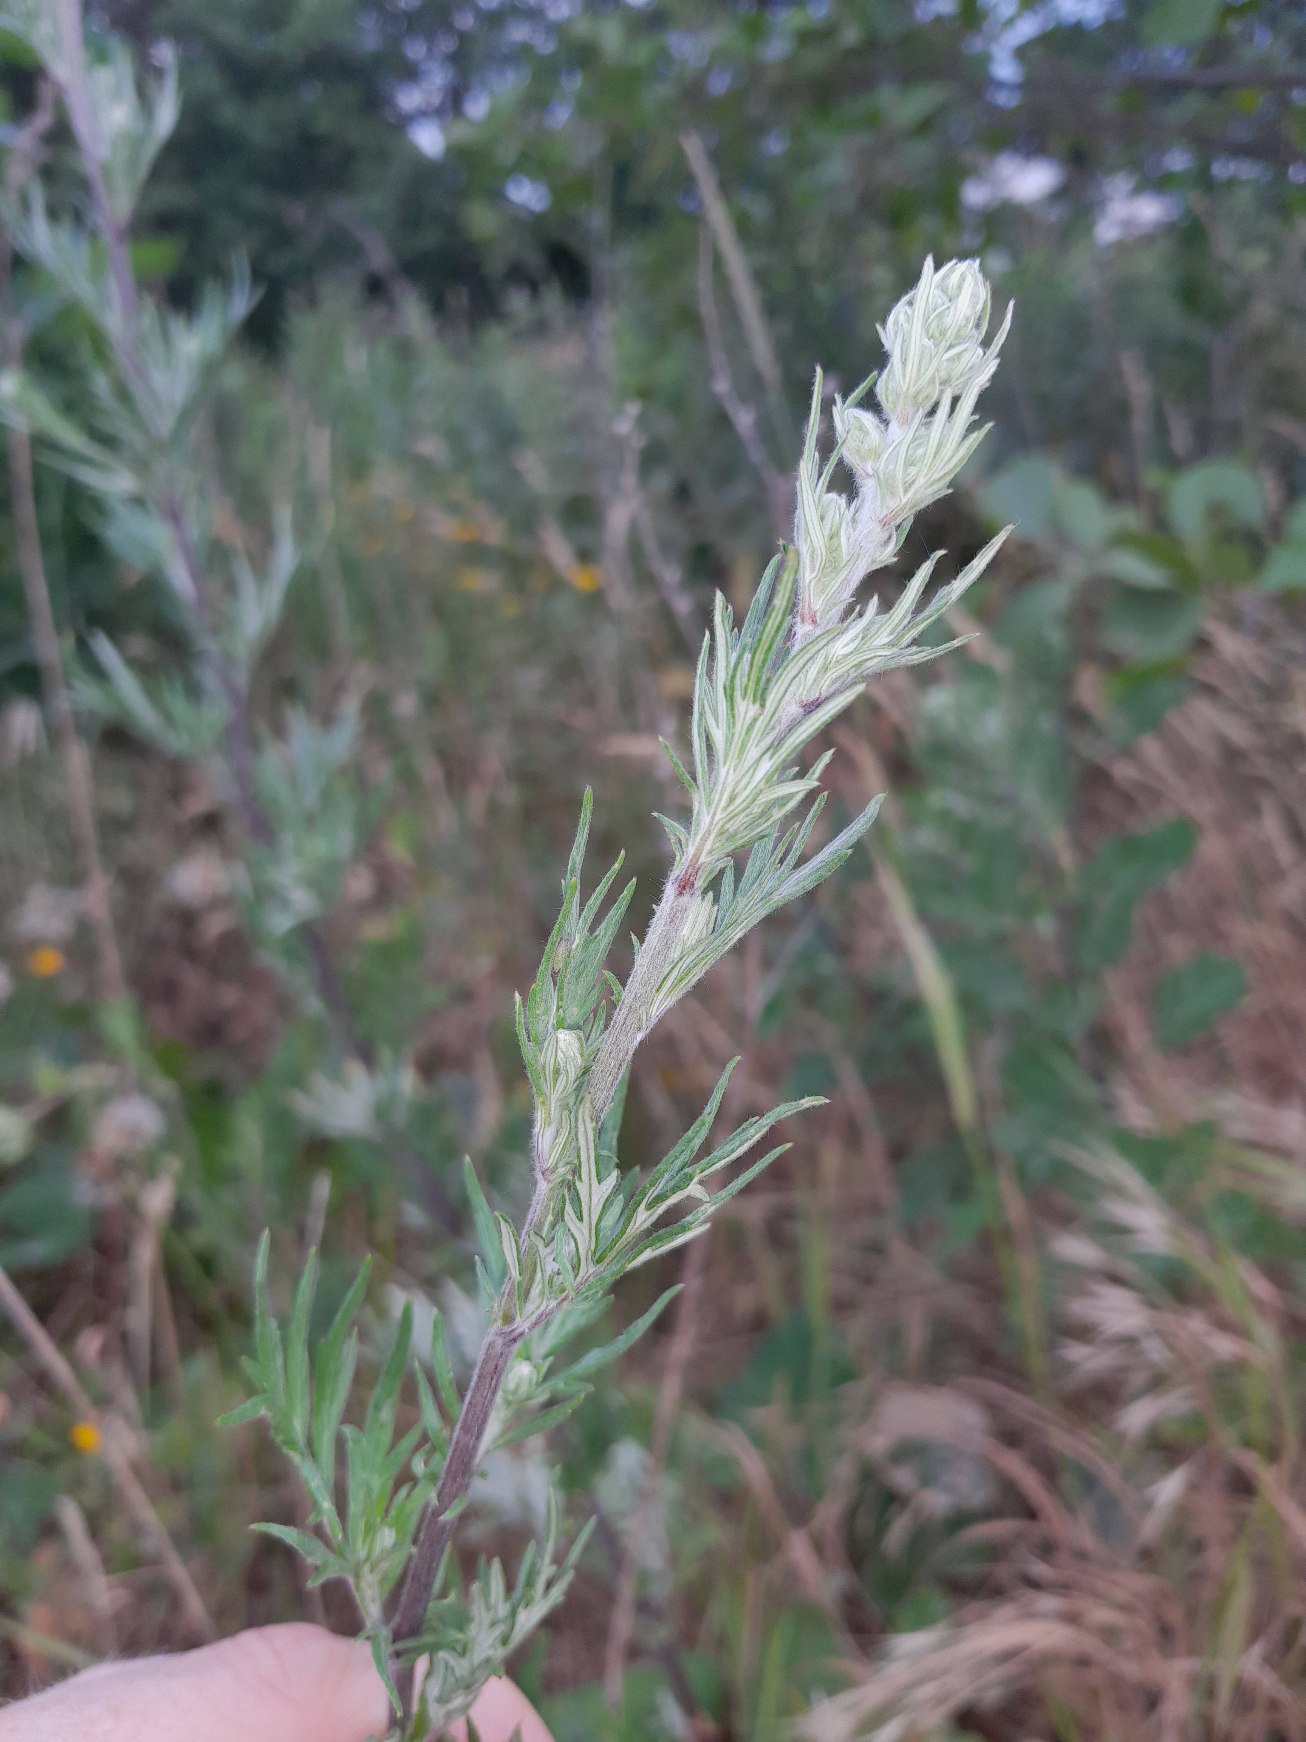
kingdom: Plantae
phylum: Tracheophyta
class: Magnoliopsida
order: Asterales
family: Asteraceae
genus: Artemisia
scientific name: Artemisia vulgaris
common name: Grå-bynke
